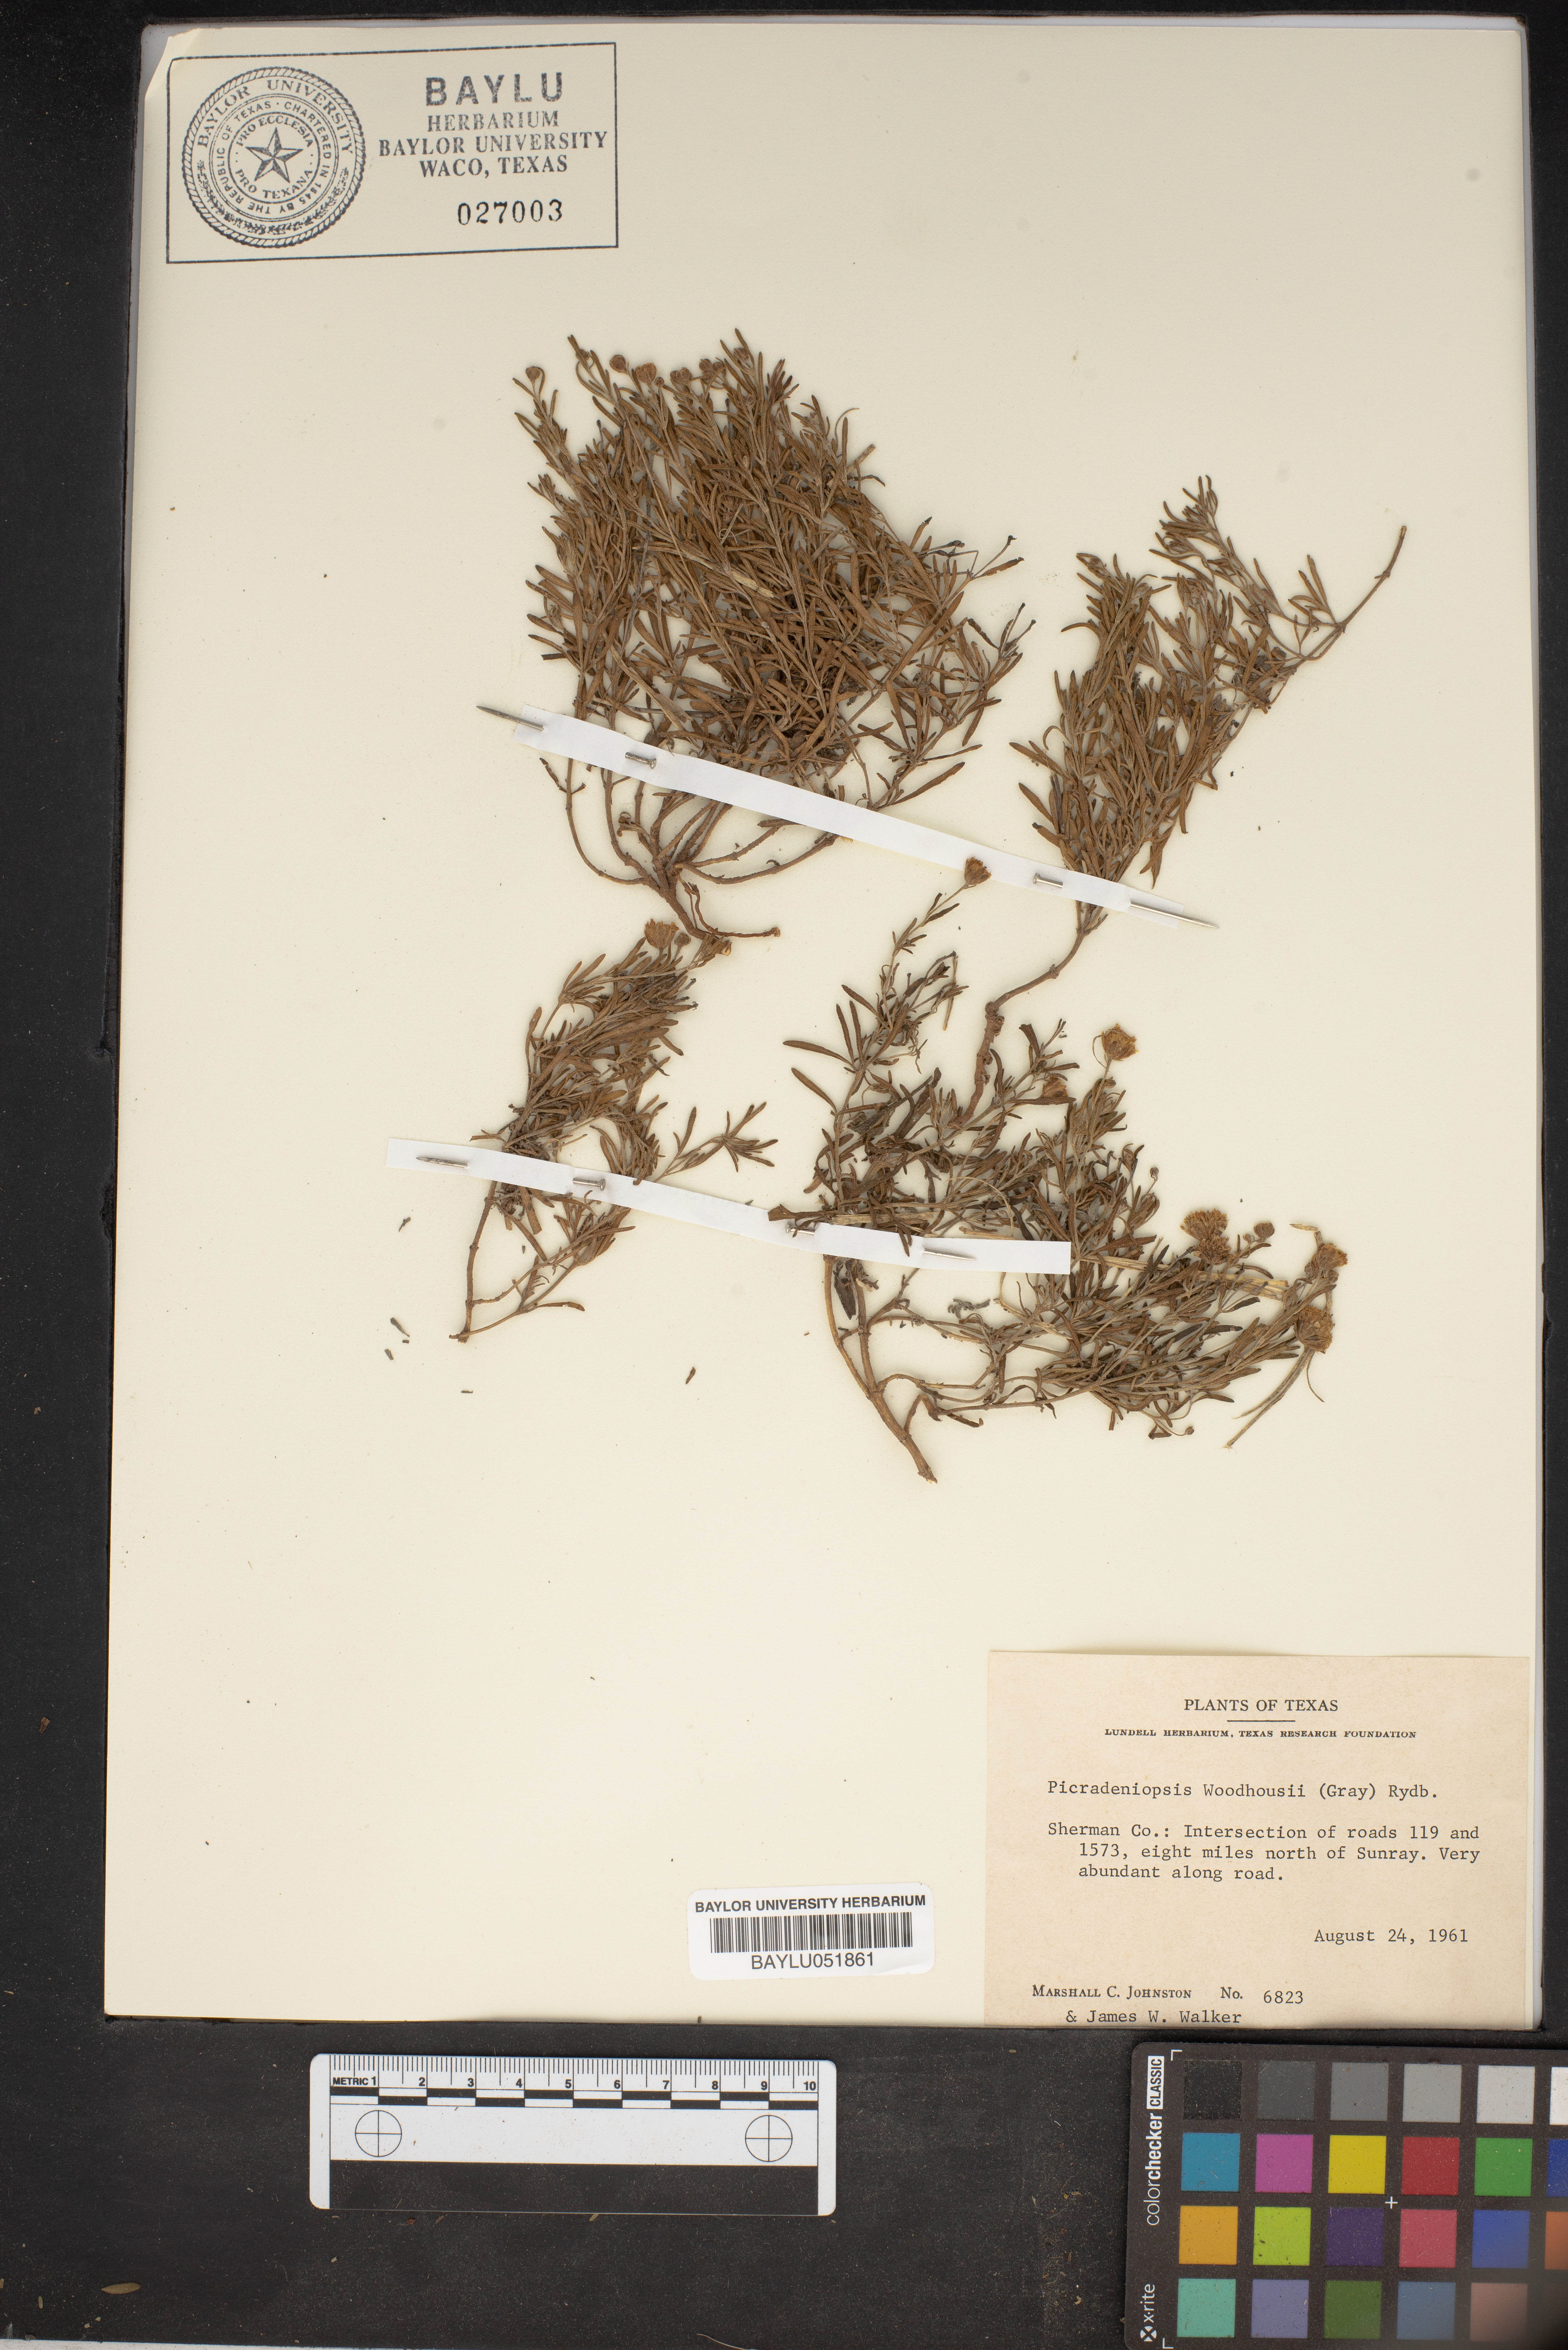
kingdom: Plantae
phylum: Tracheophyta
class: Magnoliopsida
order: Asterales
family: Asteraceae
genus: Picradeniopsis
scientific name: Picradeniopsis woodhousei
